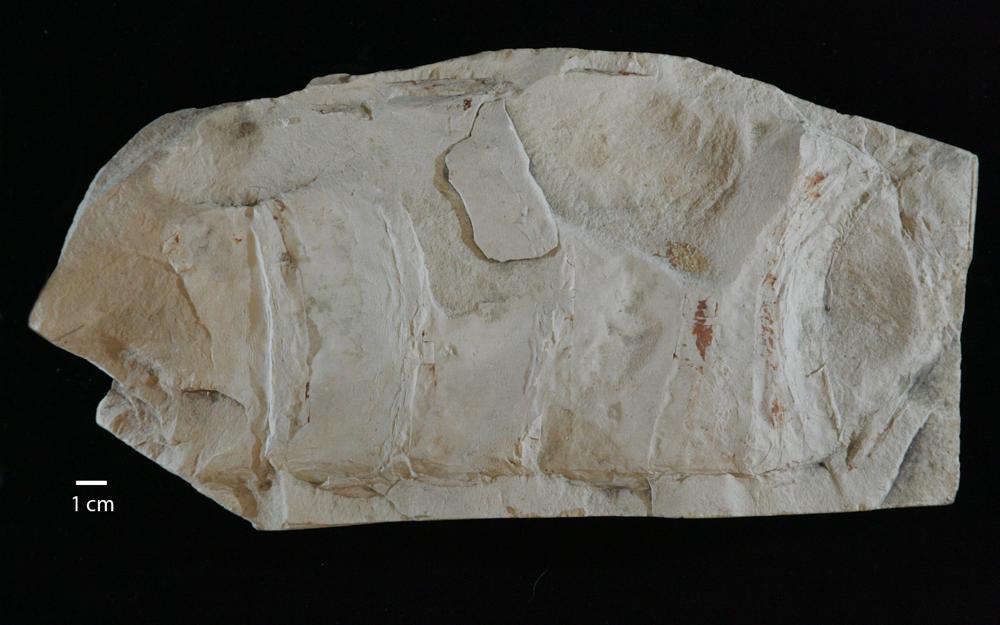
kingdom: Animalia
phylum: Chordata
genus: Pterygotus
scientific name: Pterygotus
